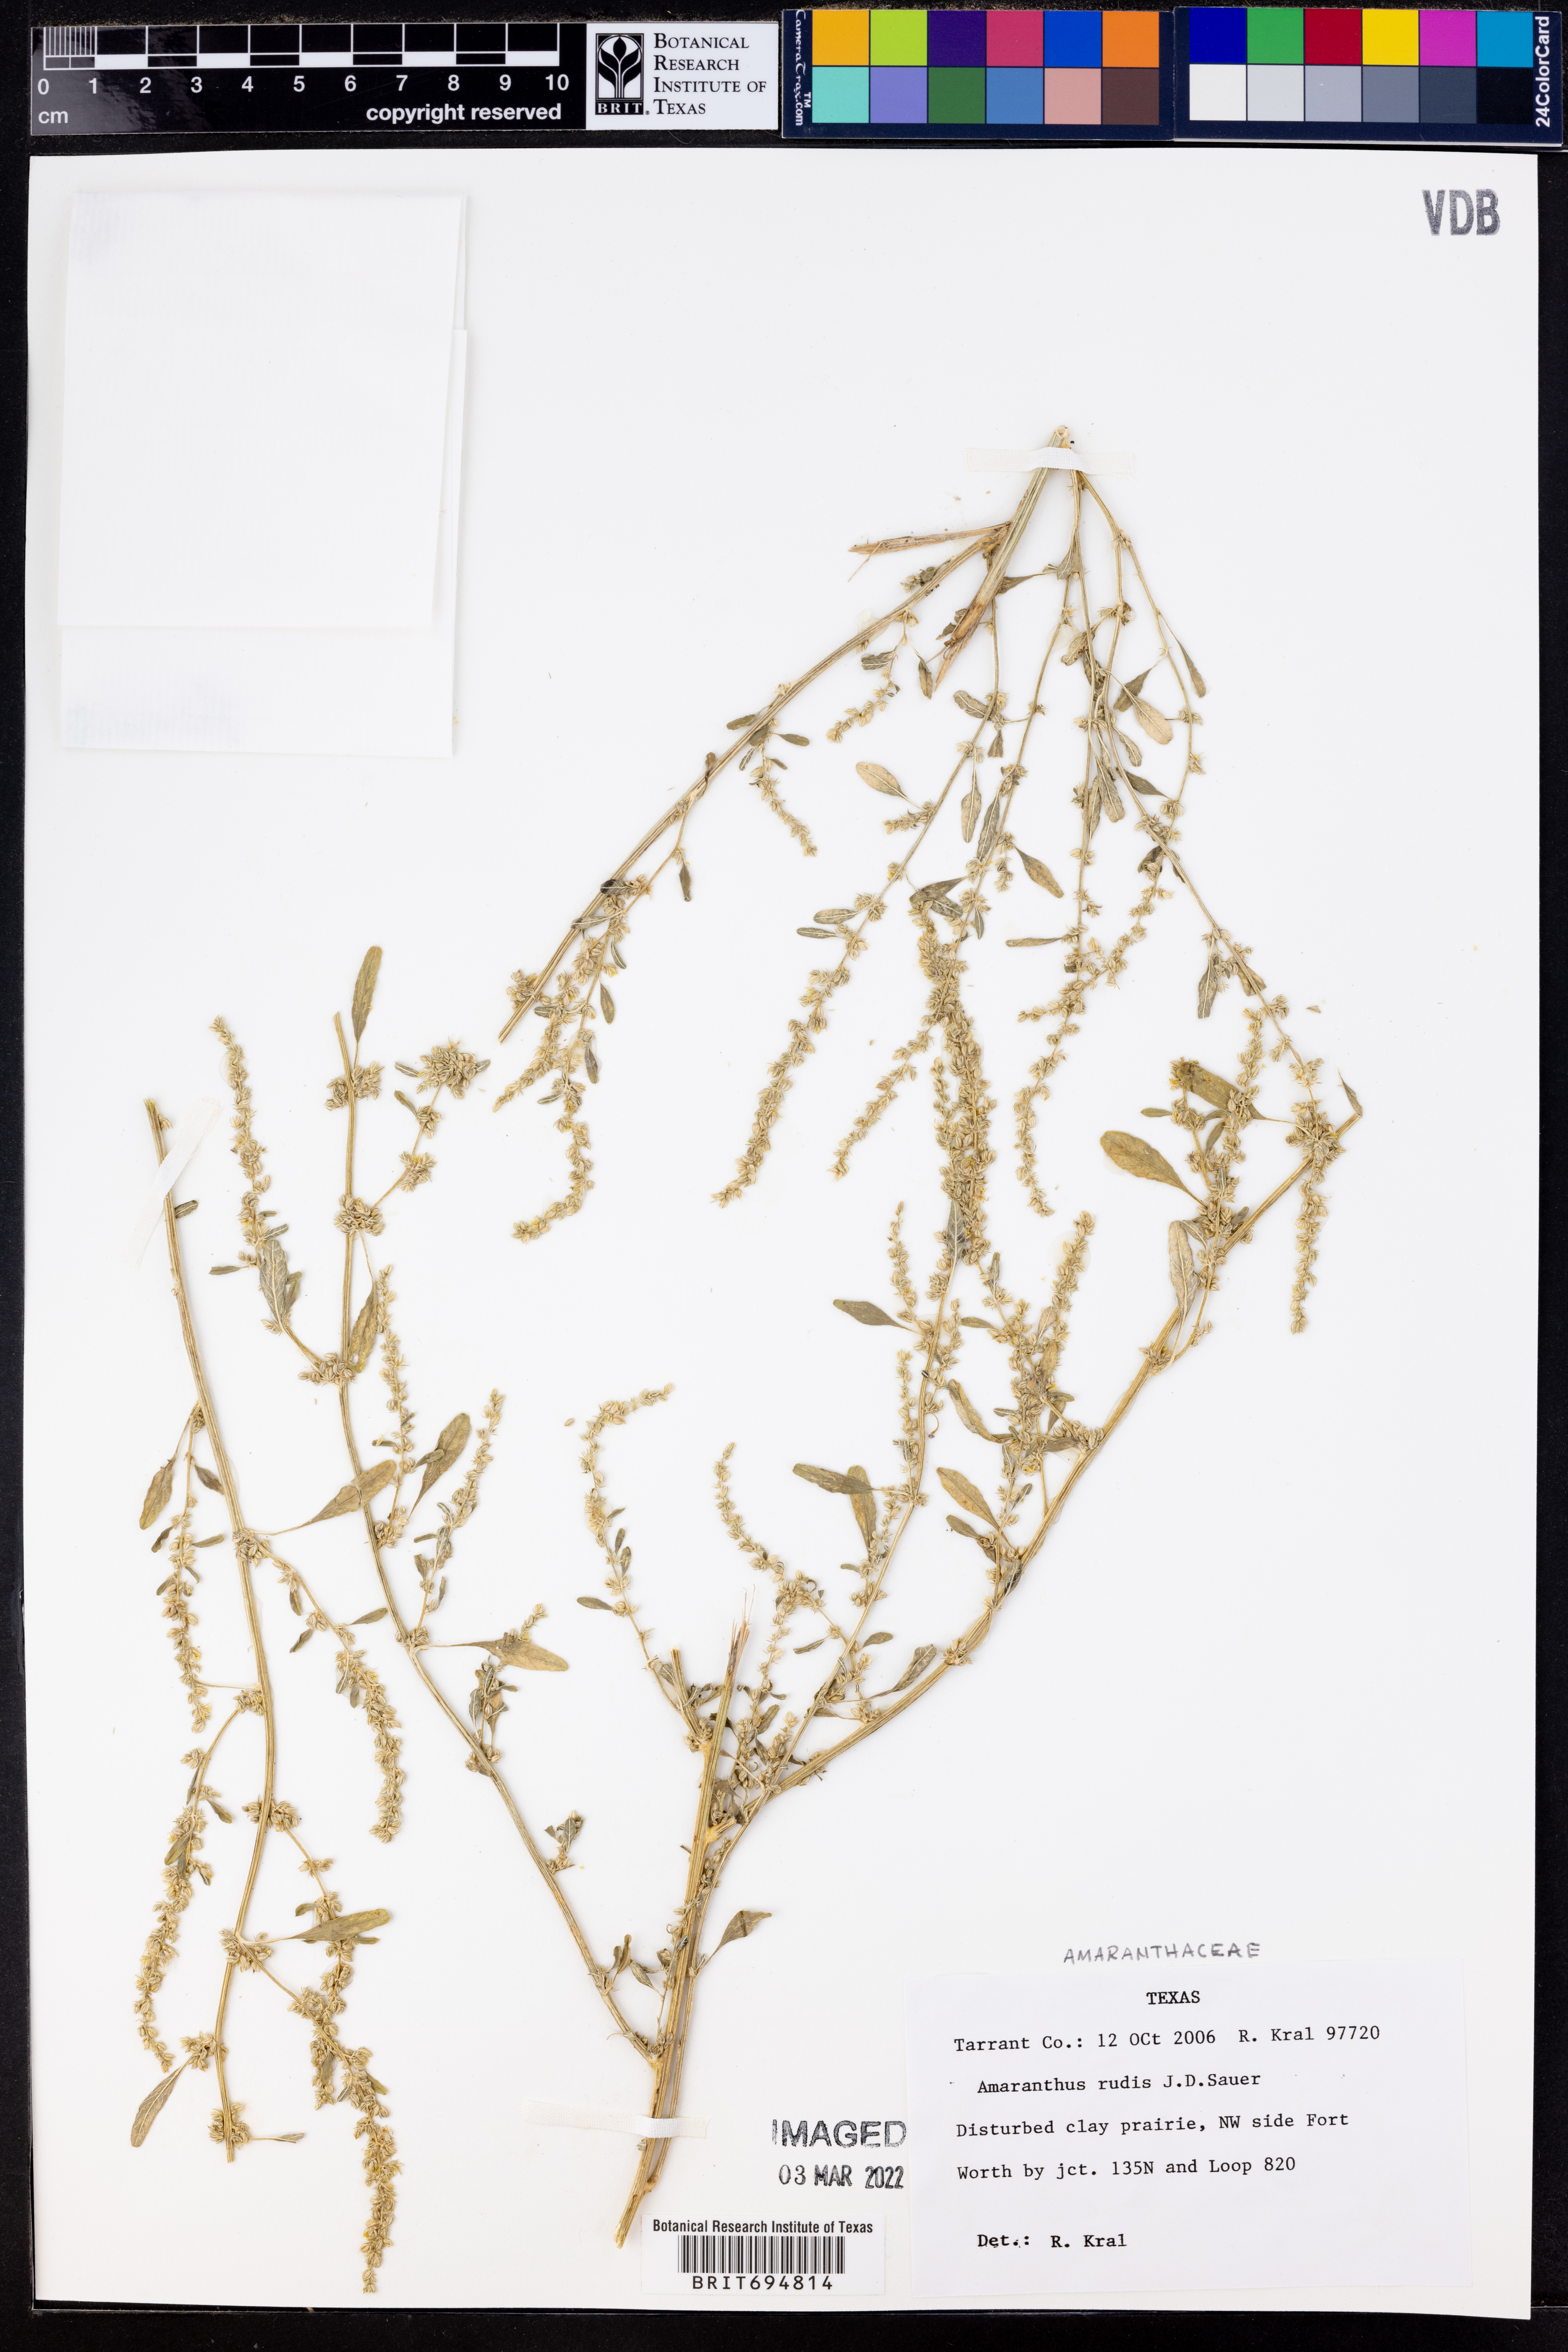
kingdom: Plantae
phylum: Tracheophyta
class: Magnoliopsida
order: Caryophyllales
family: Amaranthaceae
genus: Amaranthus
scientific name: Amaranthus tuberculatus
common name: Rough-fruit amaranth
